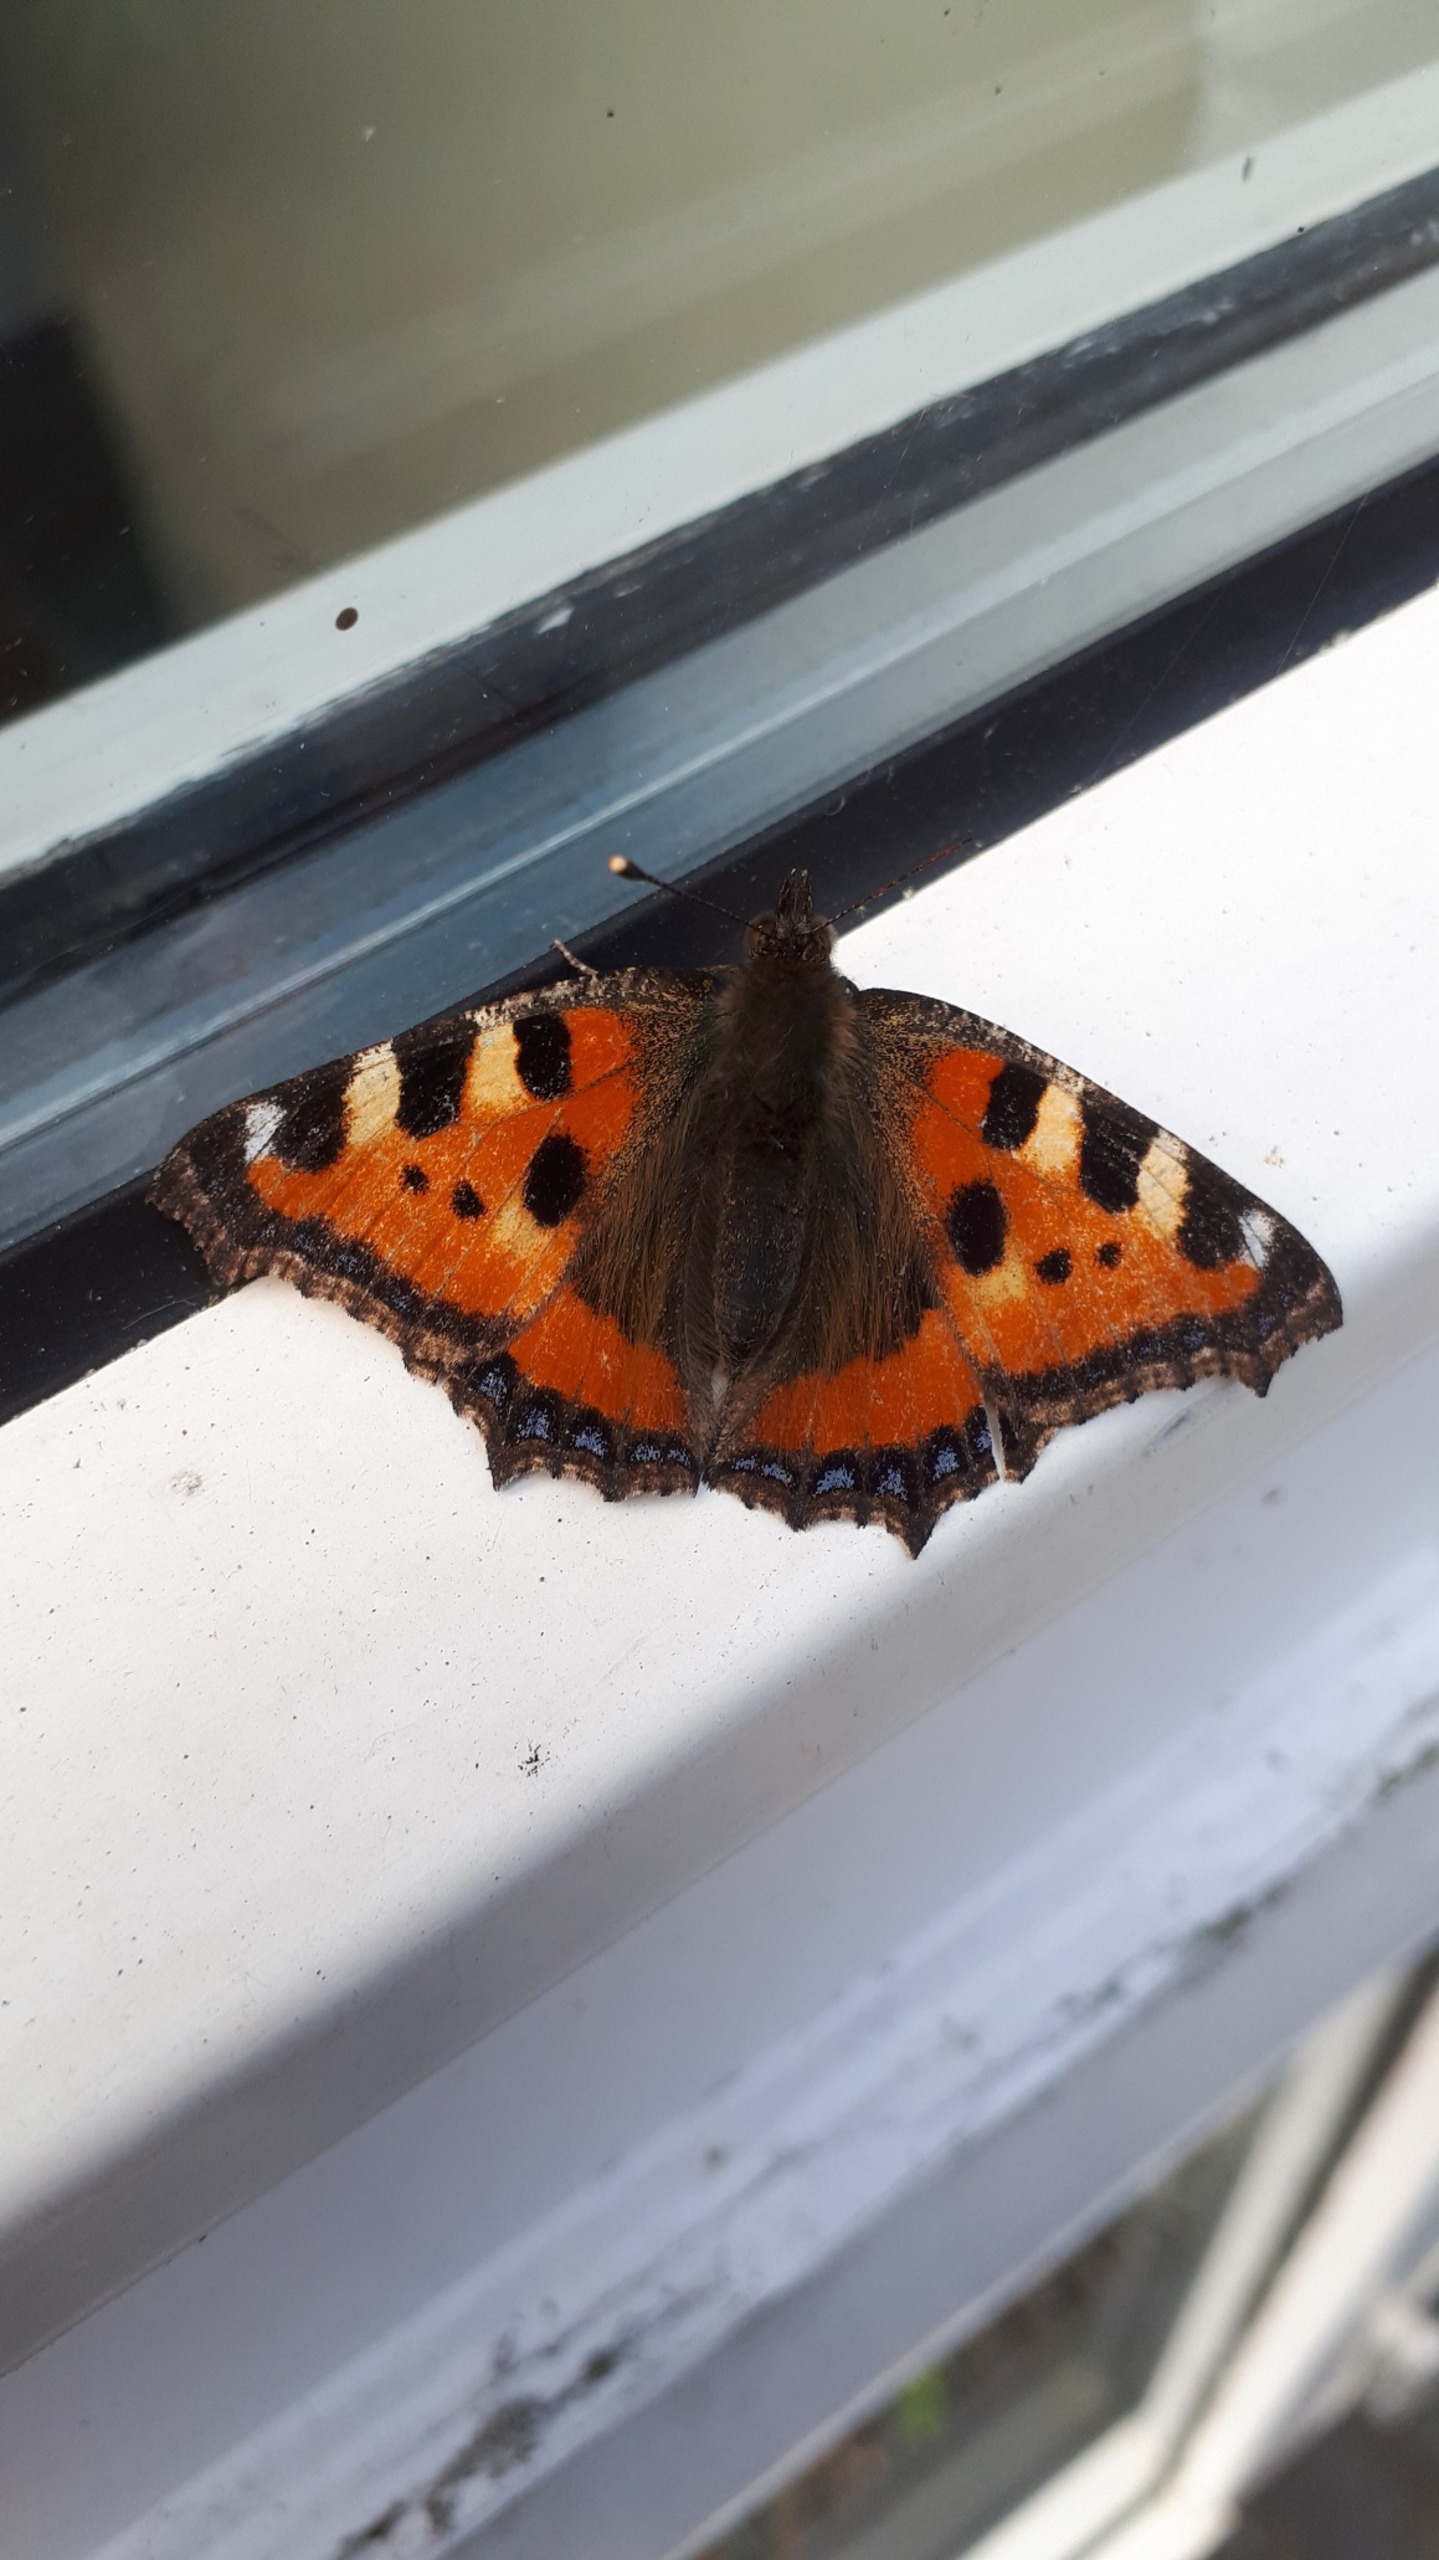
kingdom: Animalia
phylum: Arthropoda
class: Insecta
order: Lepidoptera
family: Nymphalidae
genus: Aglais
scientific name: Aglais urticae
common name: Nældens takvinge
